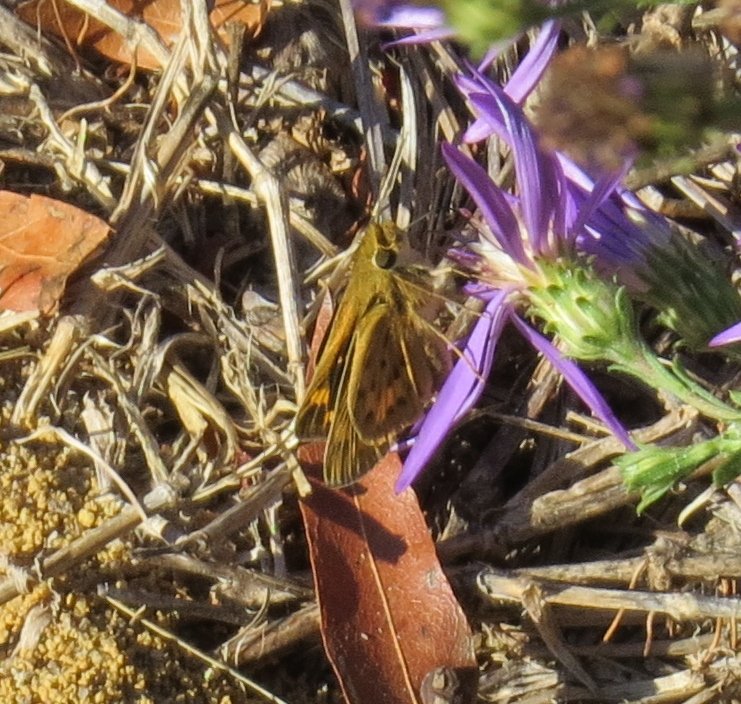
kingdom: Animalia
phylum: Arthropoda
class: Insecta
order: Lepidoptera
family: Hesperiidae
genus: Hylephila
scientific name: Hylephila phyleus
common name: Fiery Skipper
